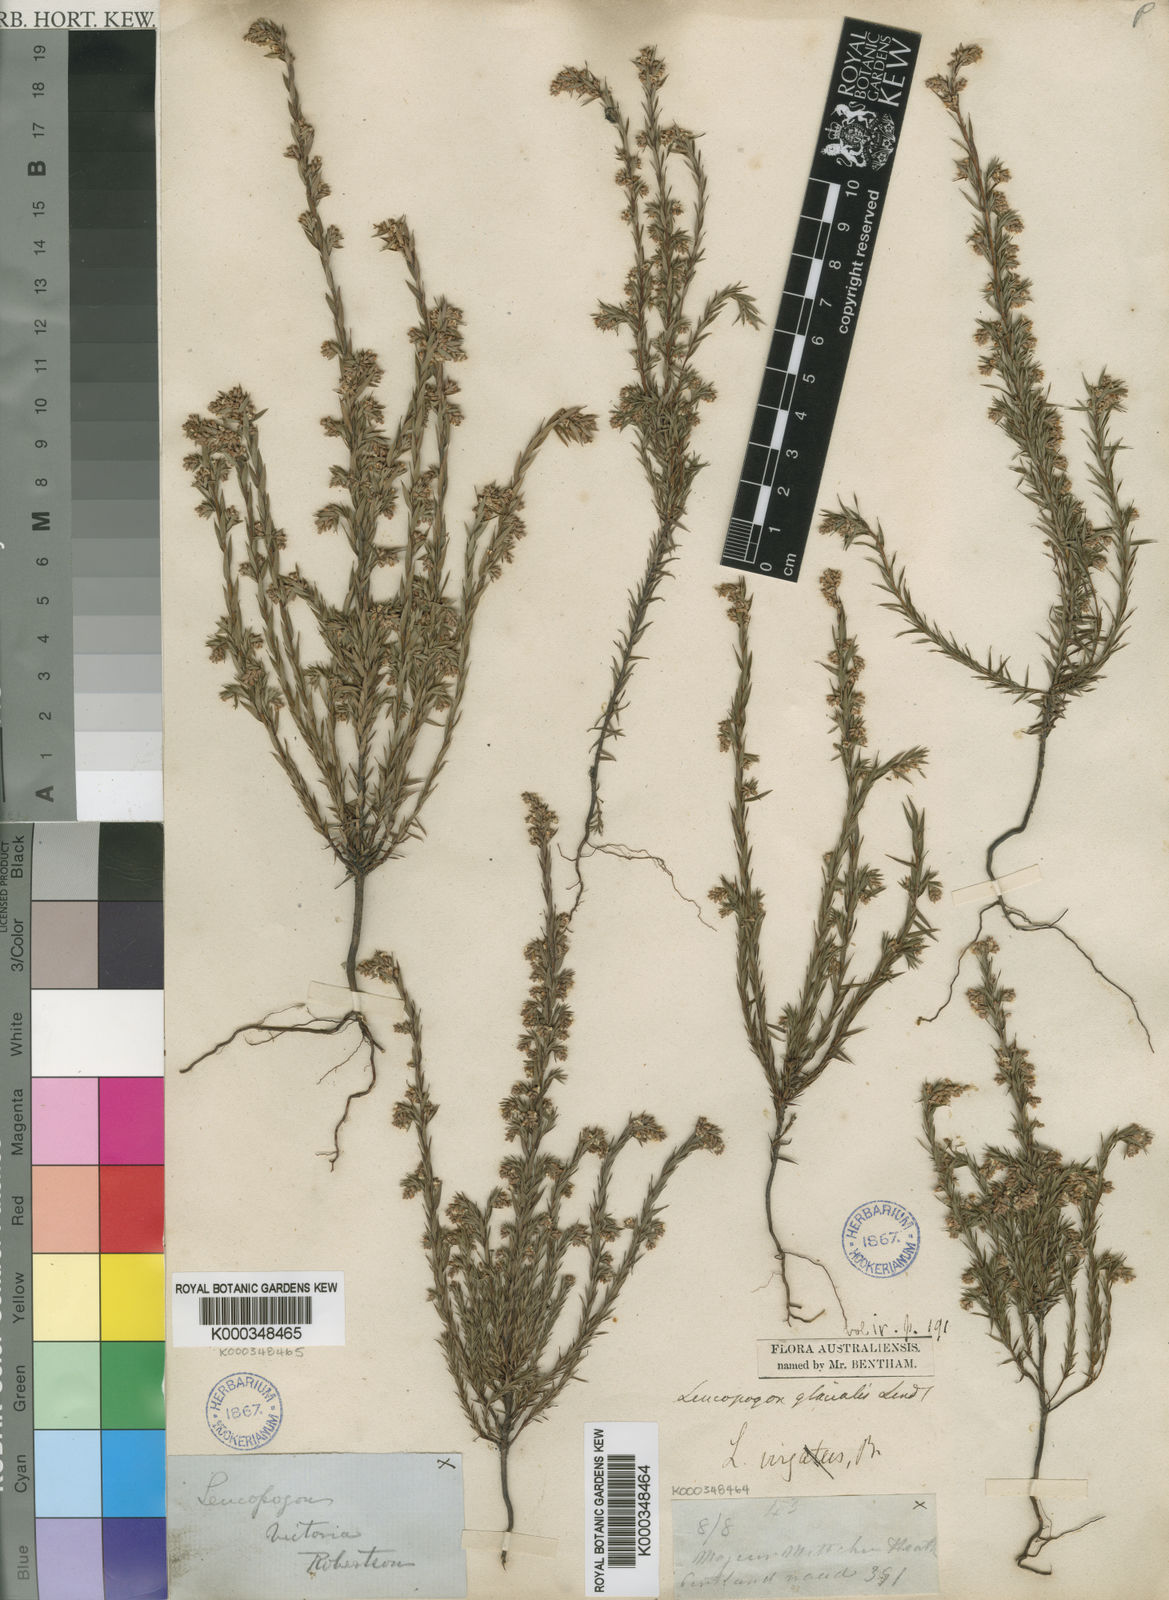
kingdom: Plantae
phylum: Tracheophyta
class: Magnoliopsida
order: Ericales
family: Ericaceae
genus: Leucopogon
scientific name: Leucopogon glacialis
